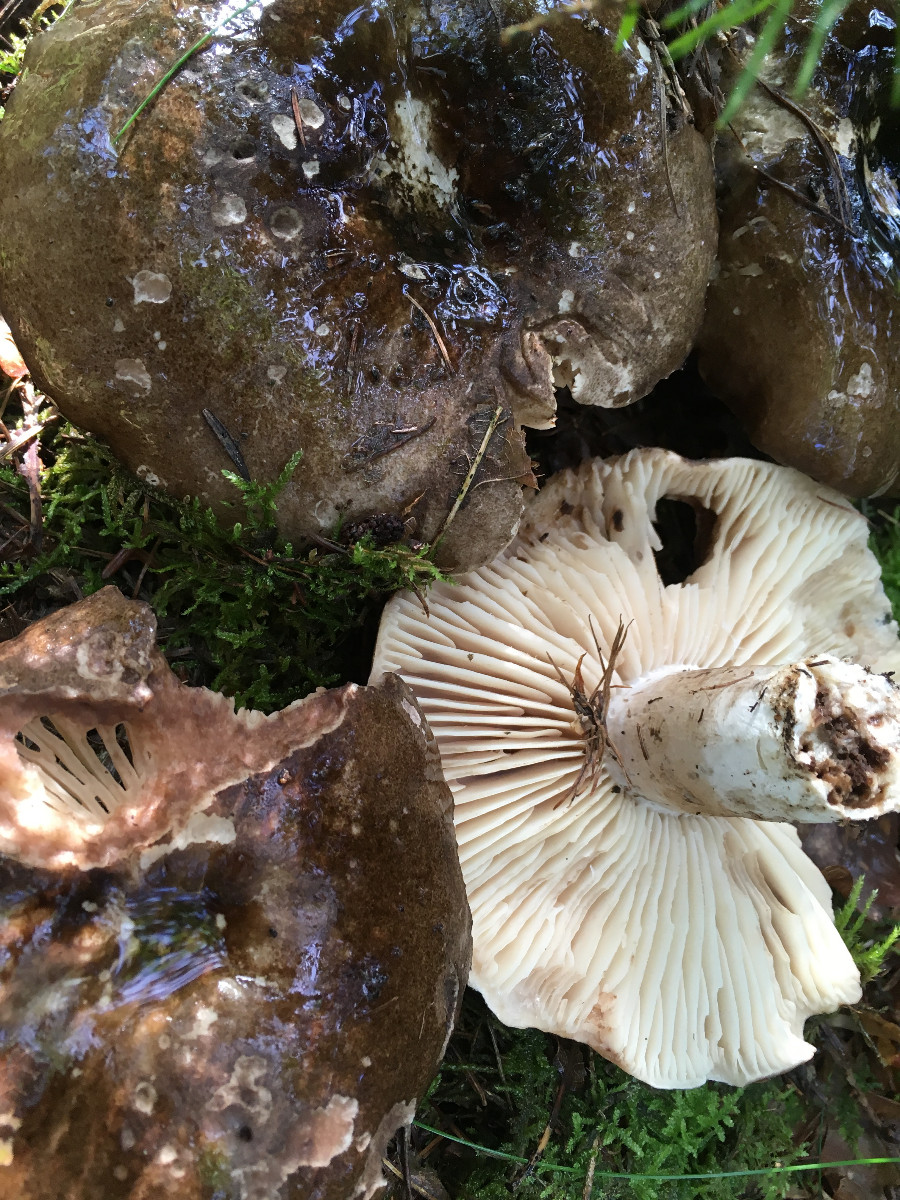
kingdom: Fungi
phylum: Basidiomycota
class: Agaricomycetes
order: Russulales
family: Russulaceae
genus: Russula
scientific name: Russula adusta
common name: sværtende skørhat
